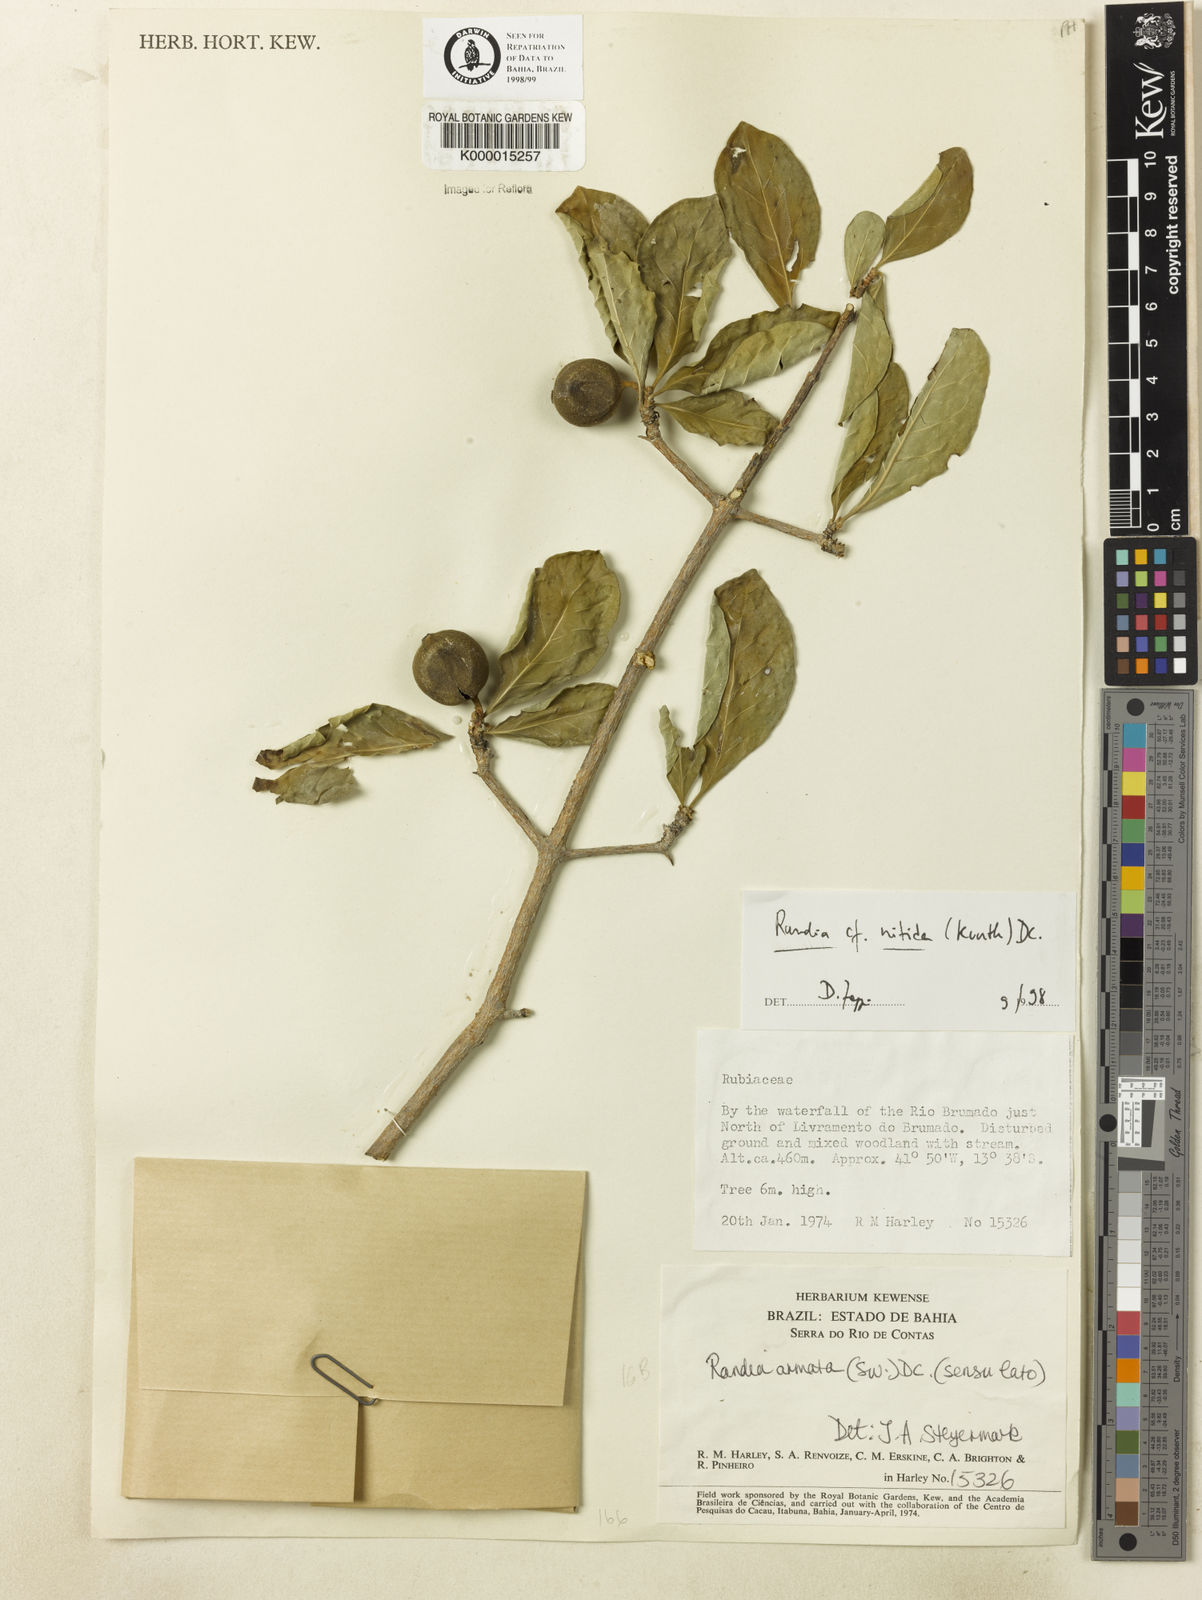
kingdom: Plantae
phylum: Tracheophyta
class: Magnoliopsida
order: Gentianales
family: Rubiaceae
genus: Randia
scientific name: Randia
